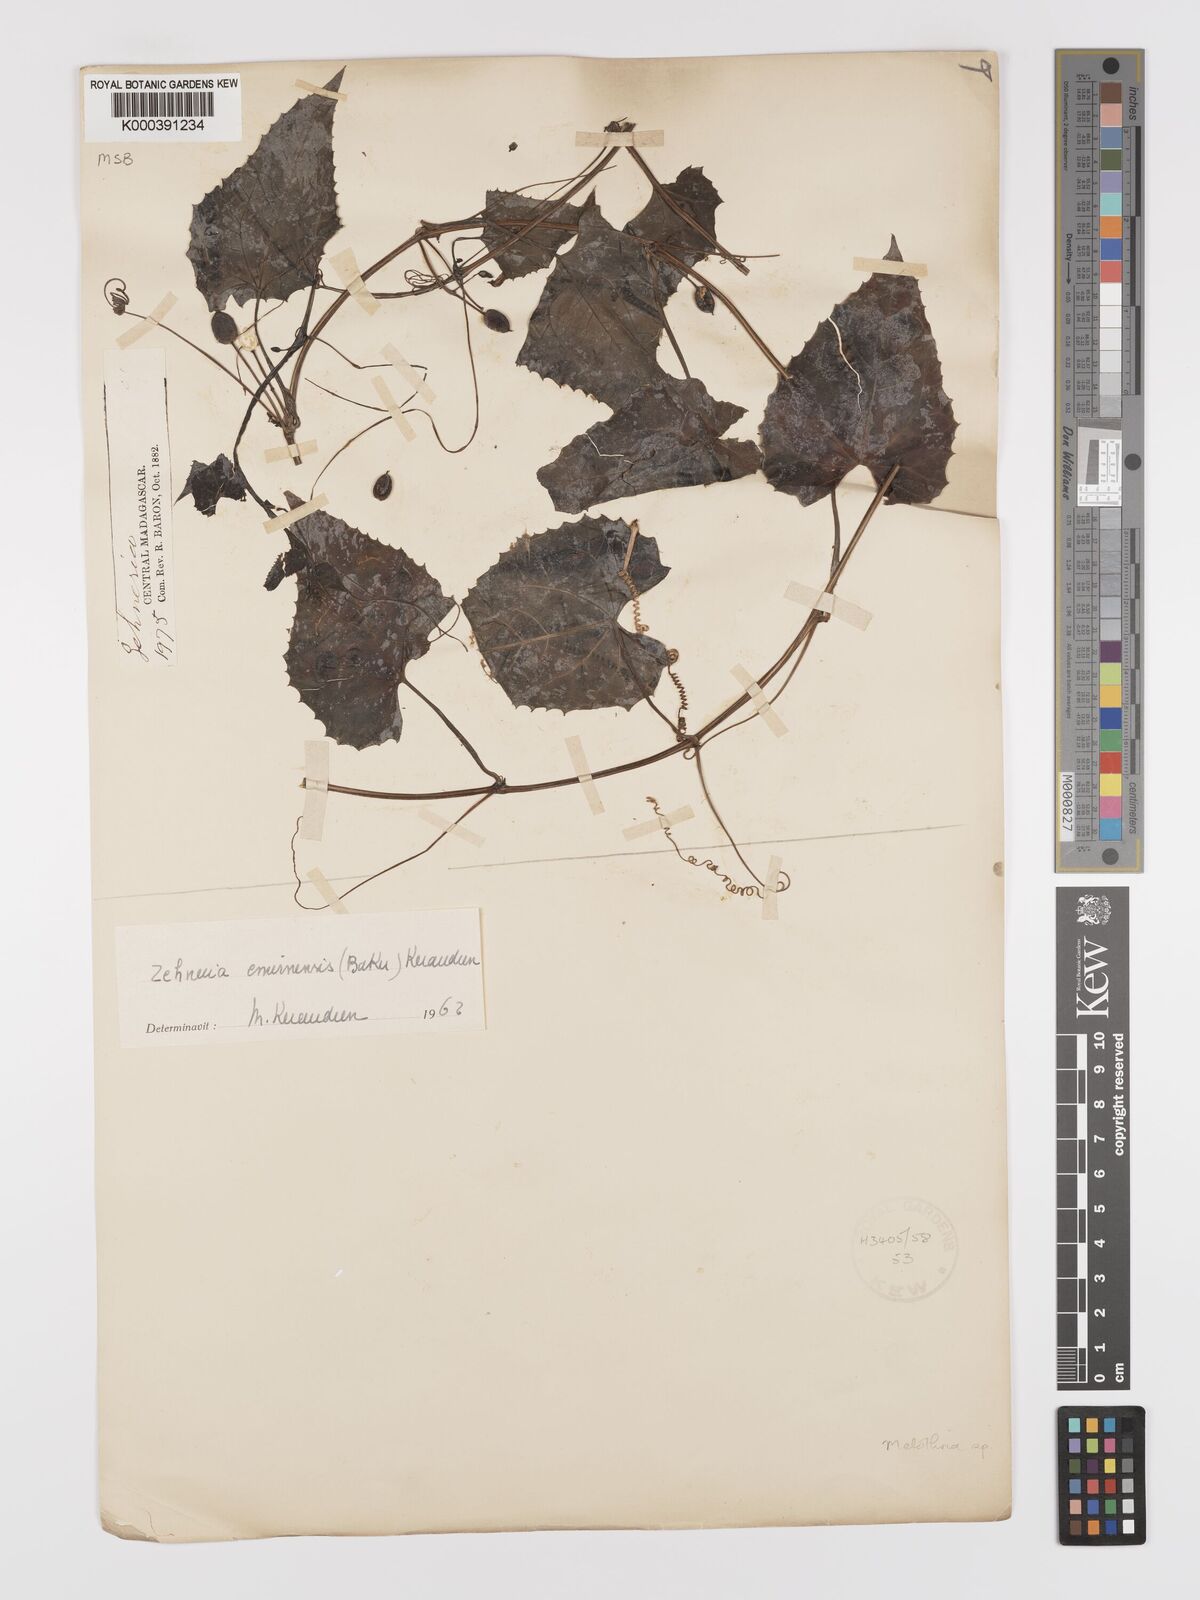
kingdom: Plantae
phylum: Tracheophyta
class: Magnoliopsida
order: Cucurbitales
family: Cucurbitaceae
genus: Zehneria
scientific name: Zehneria emirnensis
